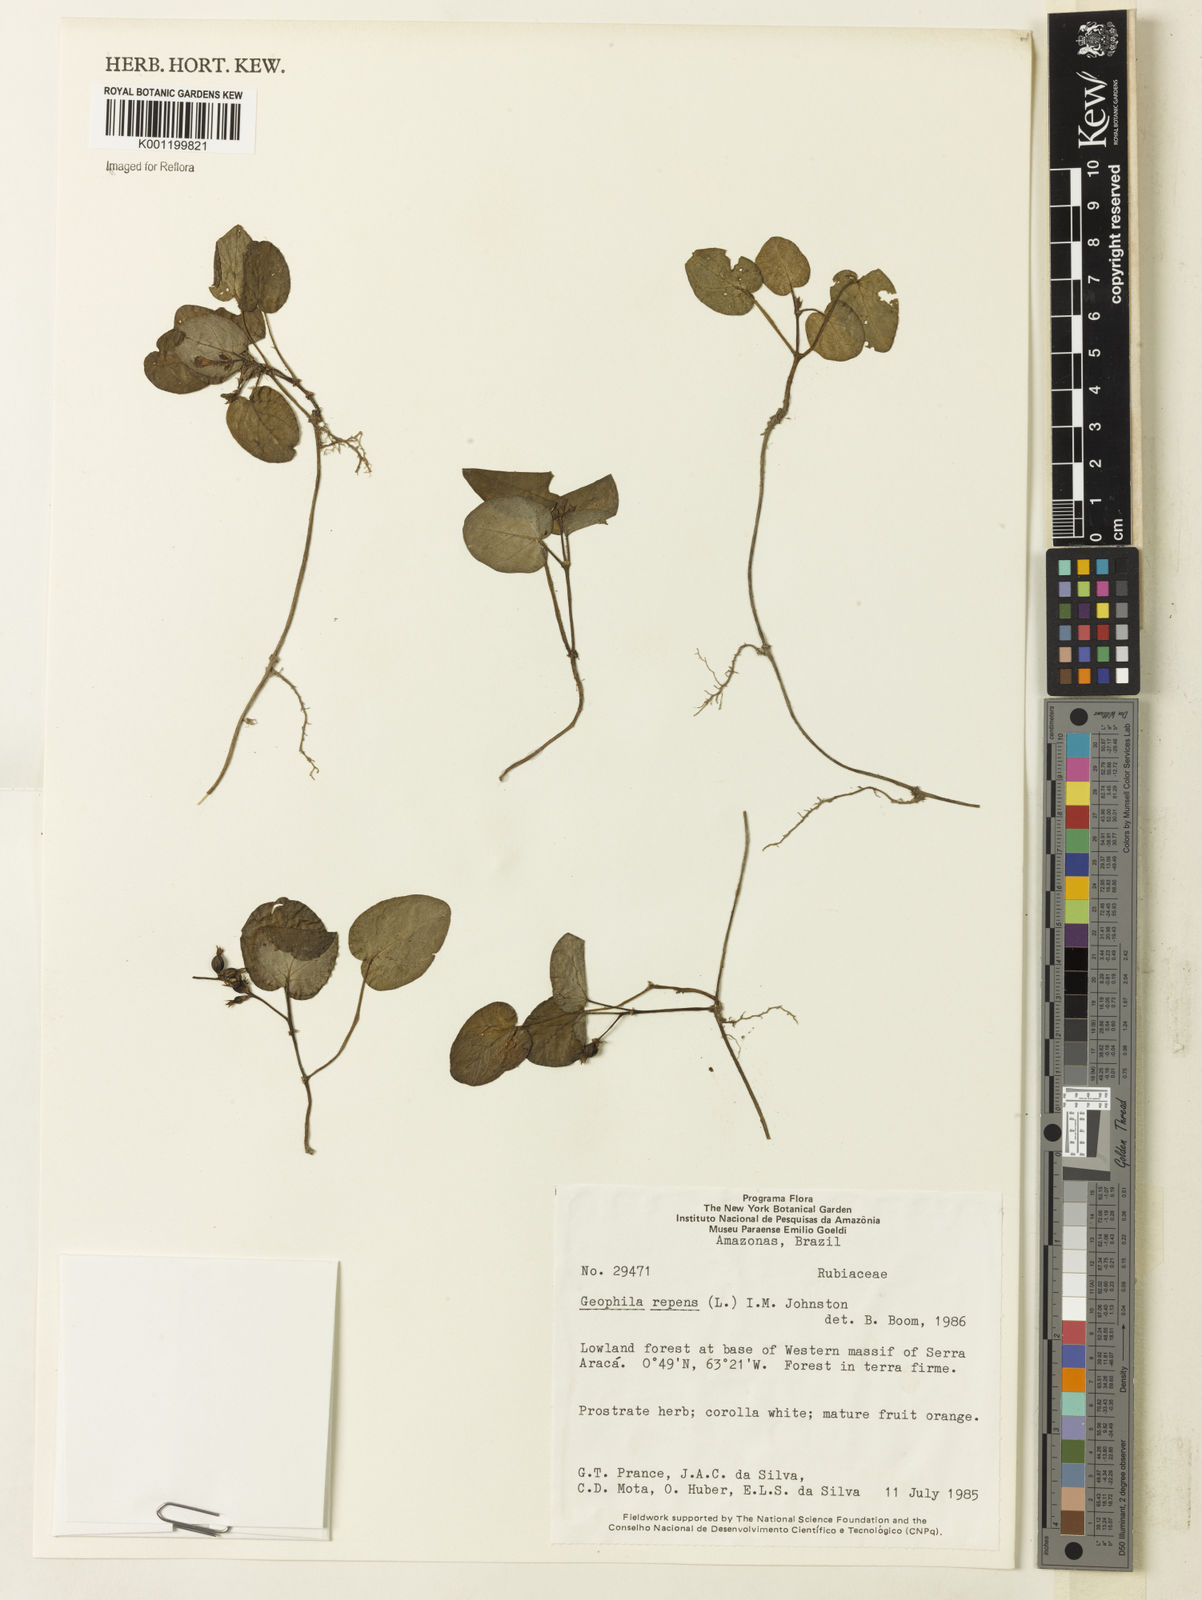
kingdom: Plantae
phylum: Tracheophyta
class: Magnoliopsida
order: Gentianales
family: Rubiaceae
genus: Geophila
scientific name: Geophila repens
